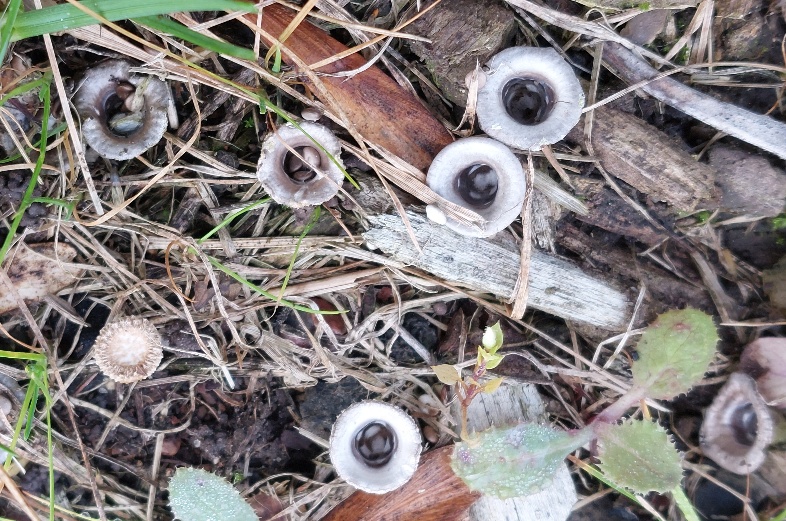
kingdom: Fungi
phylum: Basidiomycota
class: Agaricomycetes
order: Agaricales
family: Agaricaceae
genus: Cyathus
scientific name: Cyathus olla
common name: klokke-redesvamp
